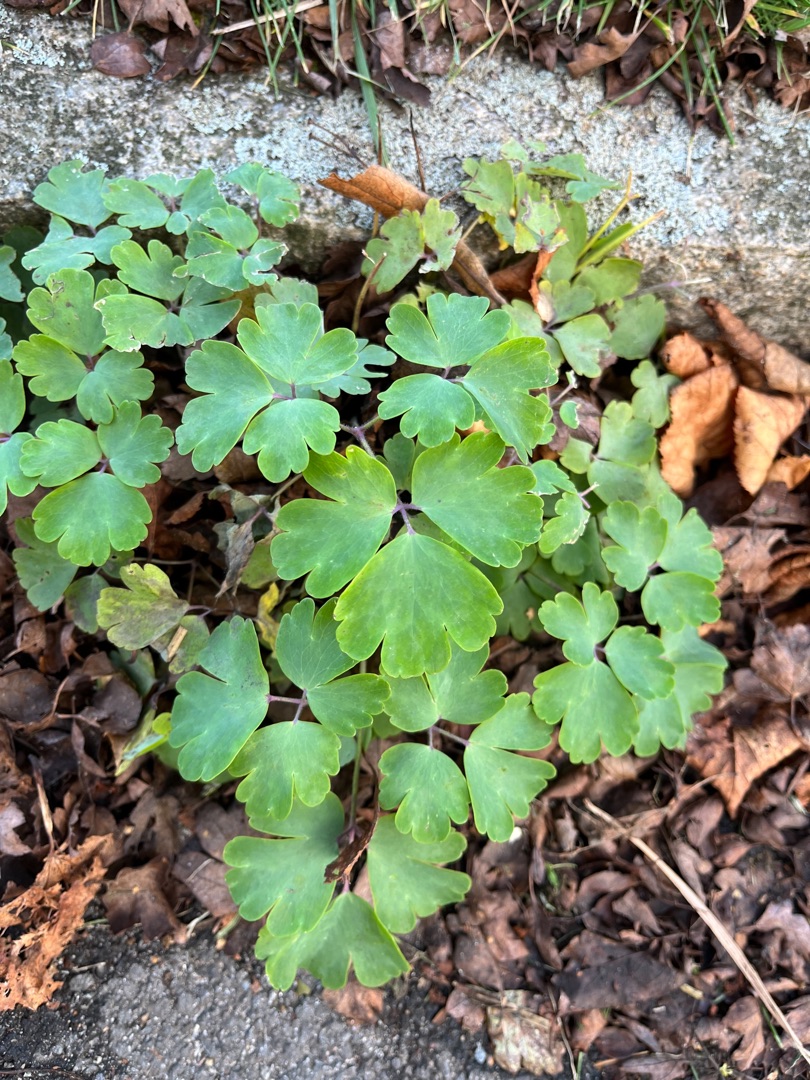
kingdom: Plantae
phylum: Tracheophyta
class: Magnoliopsida
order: Ranunculales
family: Ranunculaceae
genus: Aquilegia
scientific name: Aquilegia vulgaris
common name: Akeleje
